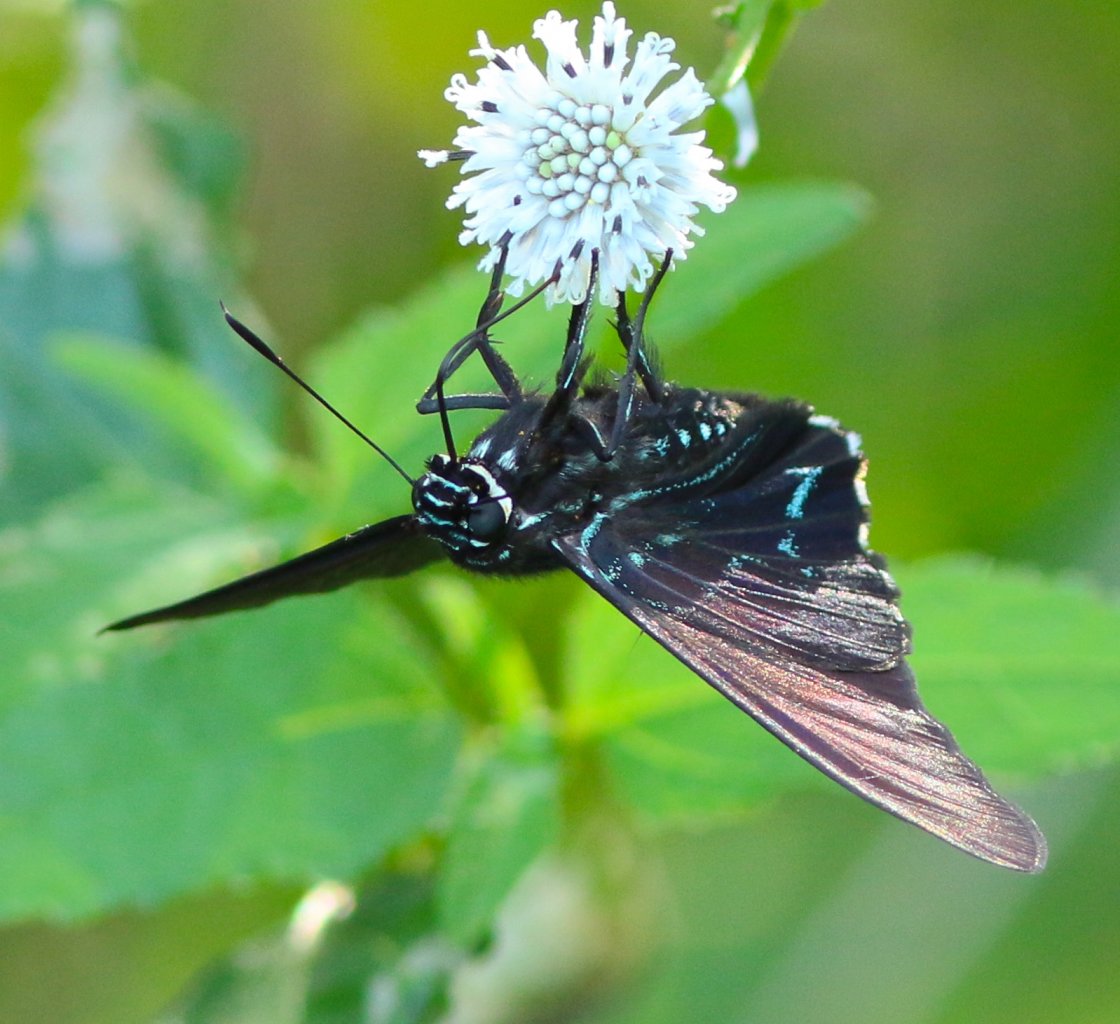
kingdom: Animalia
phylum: Arthropoda
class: Insecta
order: Lepidoptera
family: Hesperiidae
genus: Phocides
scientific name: Phocides pigmalion
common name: Mangrove Skipper
